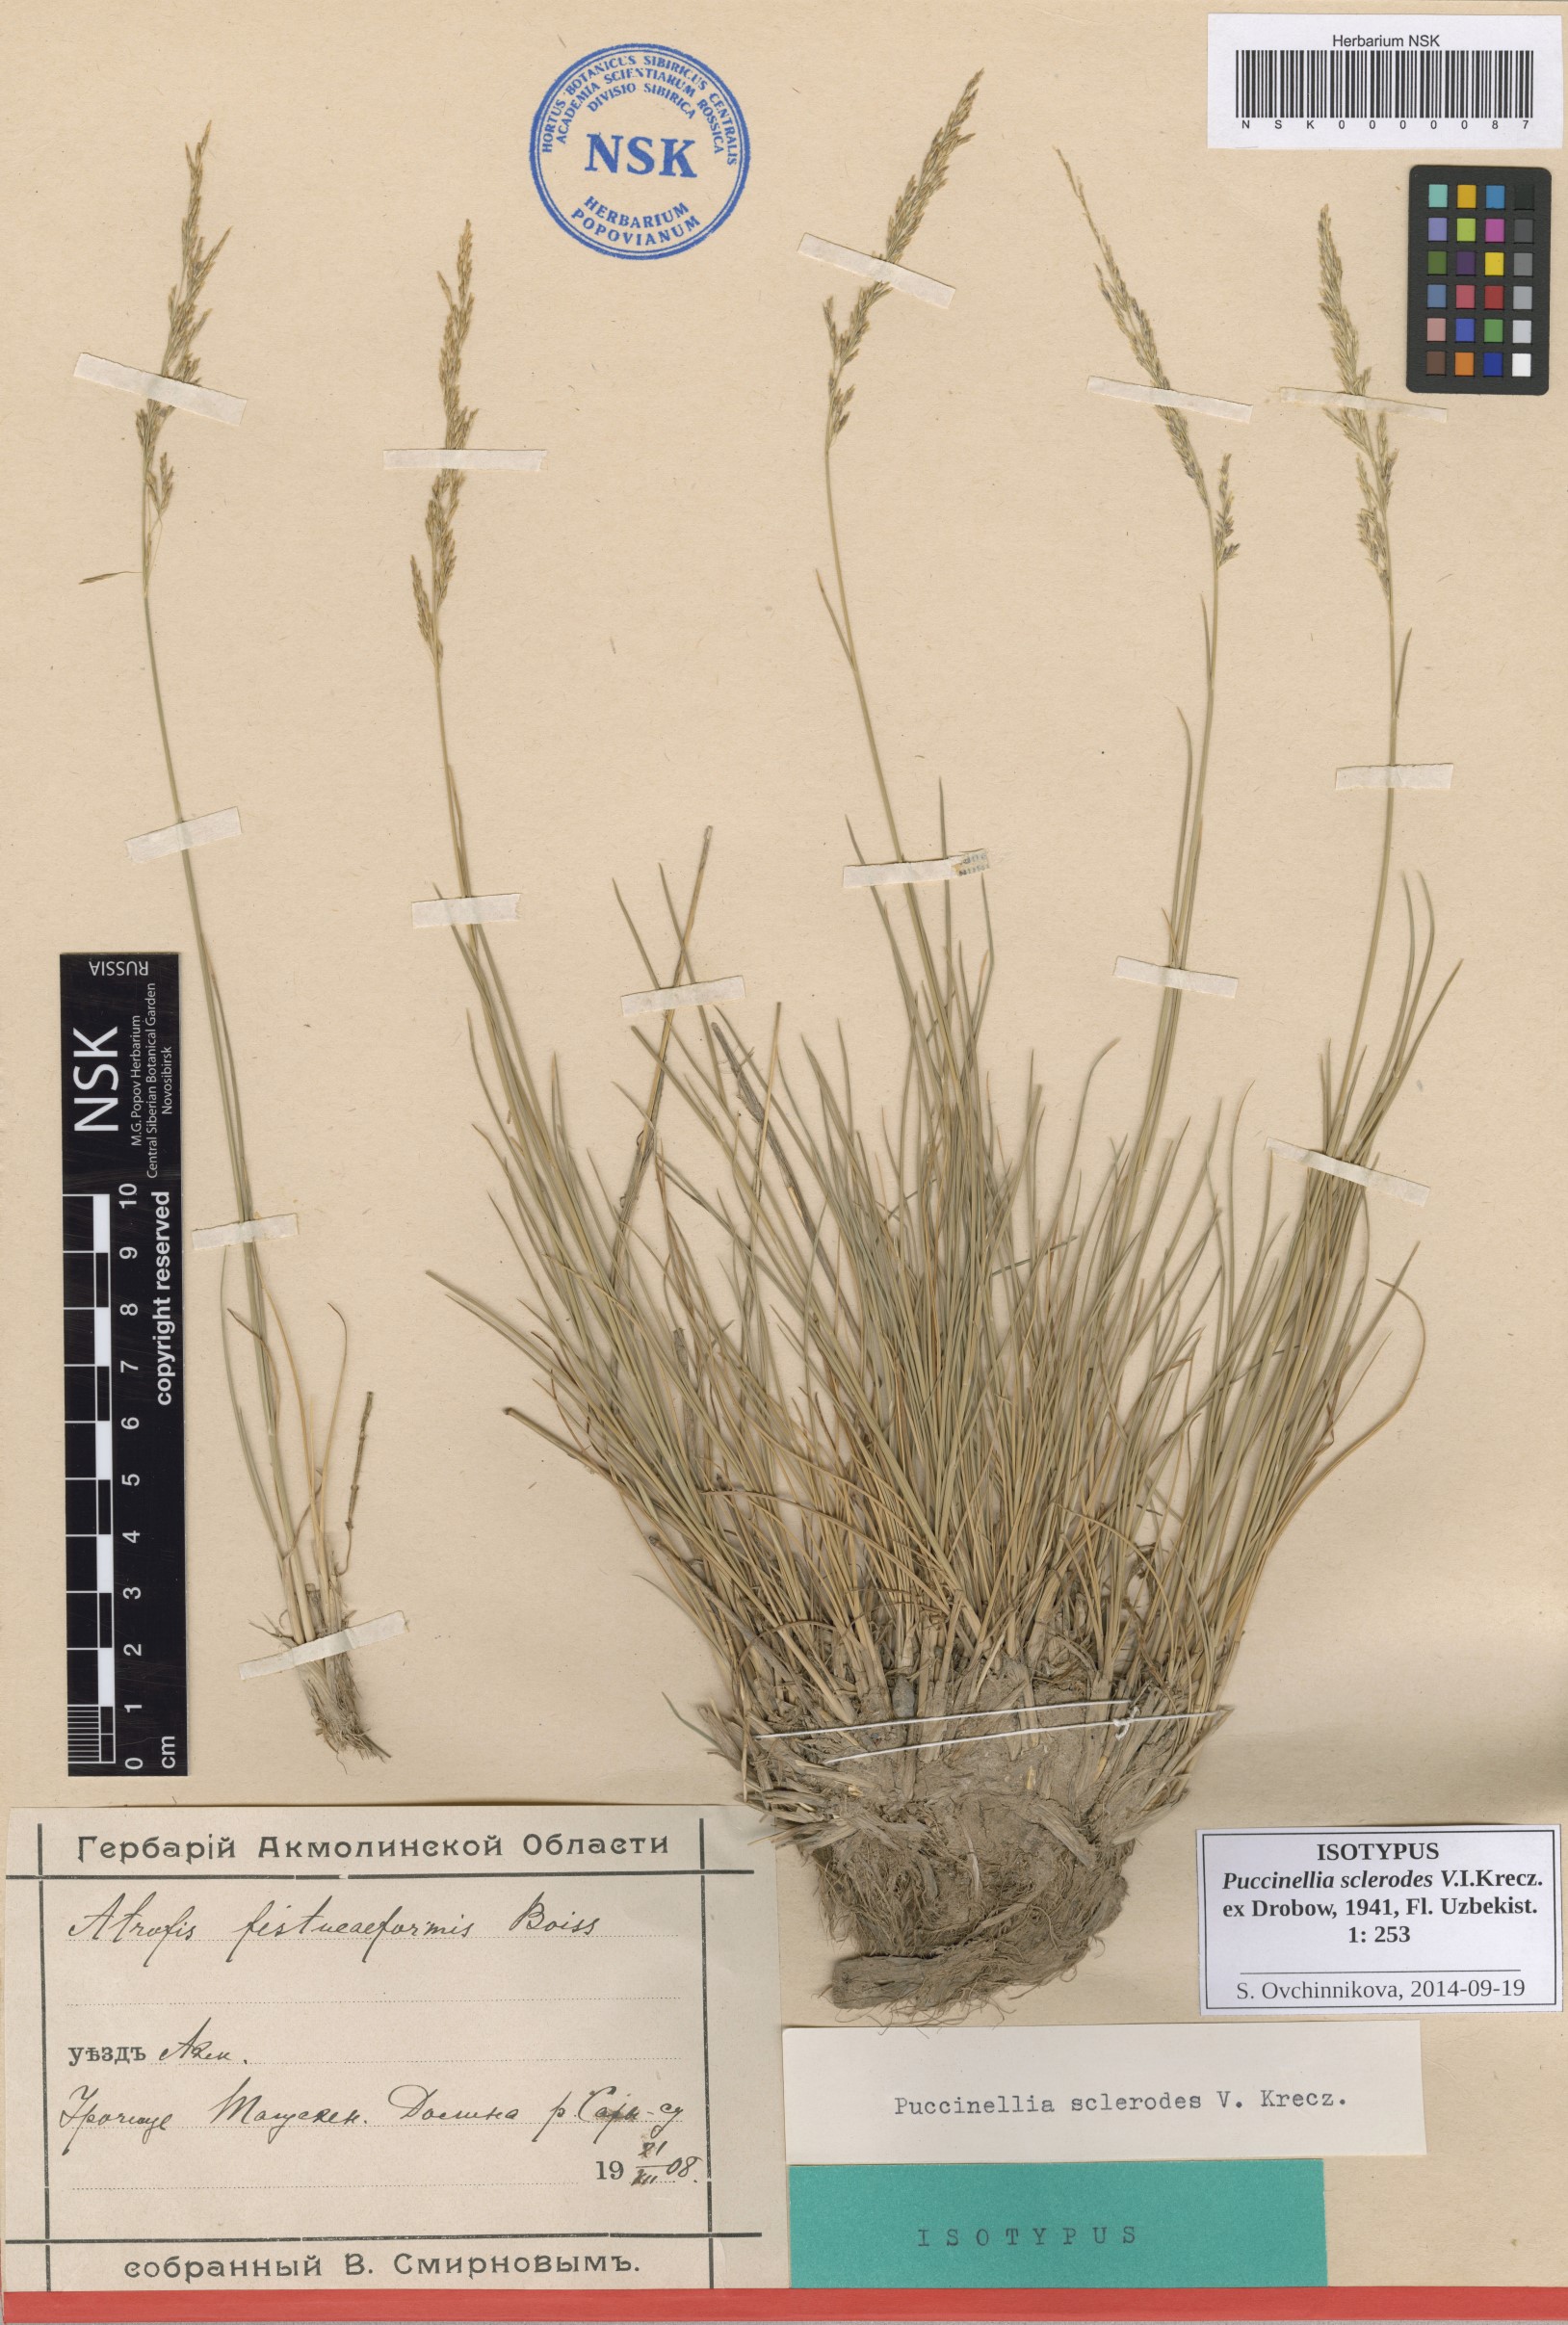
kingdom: Plantae
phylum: Tracheophyta
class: Liliopsida
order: Poales
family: Poaceae
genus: Puccinellia
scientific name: Puccinellia gigantea
